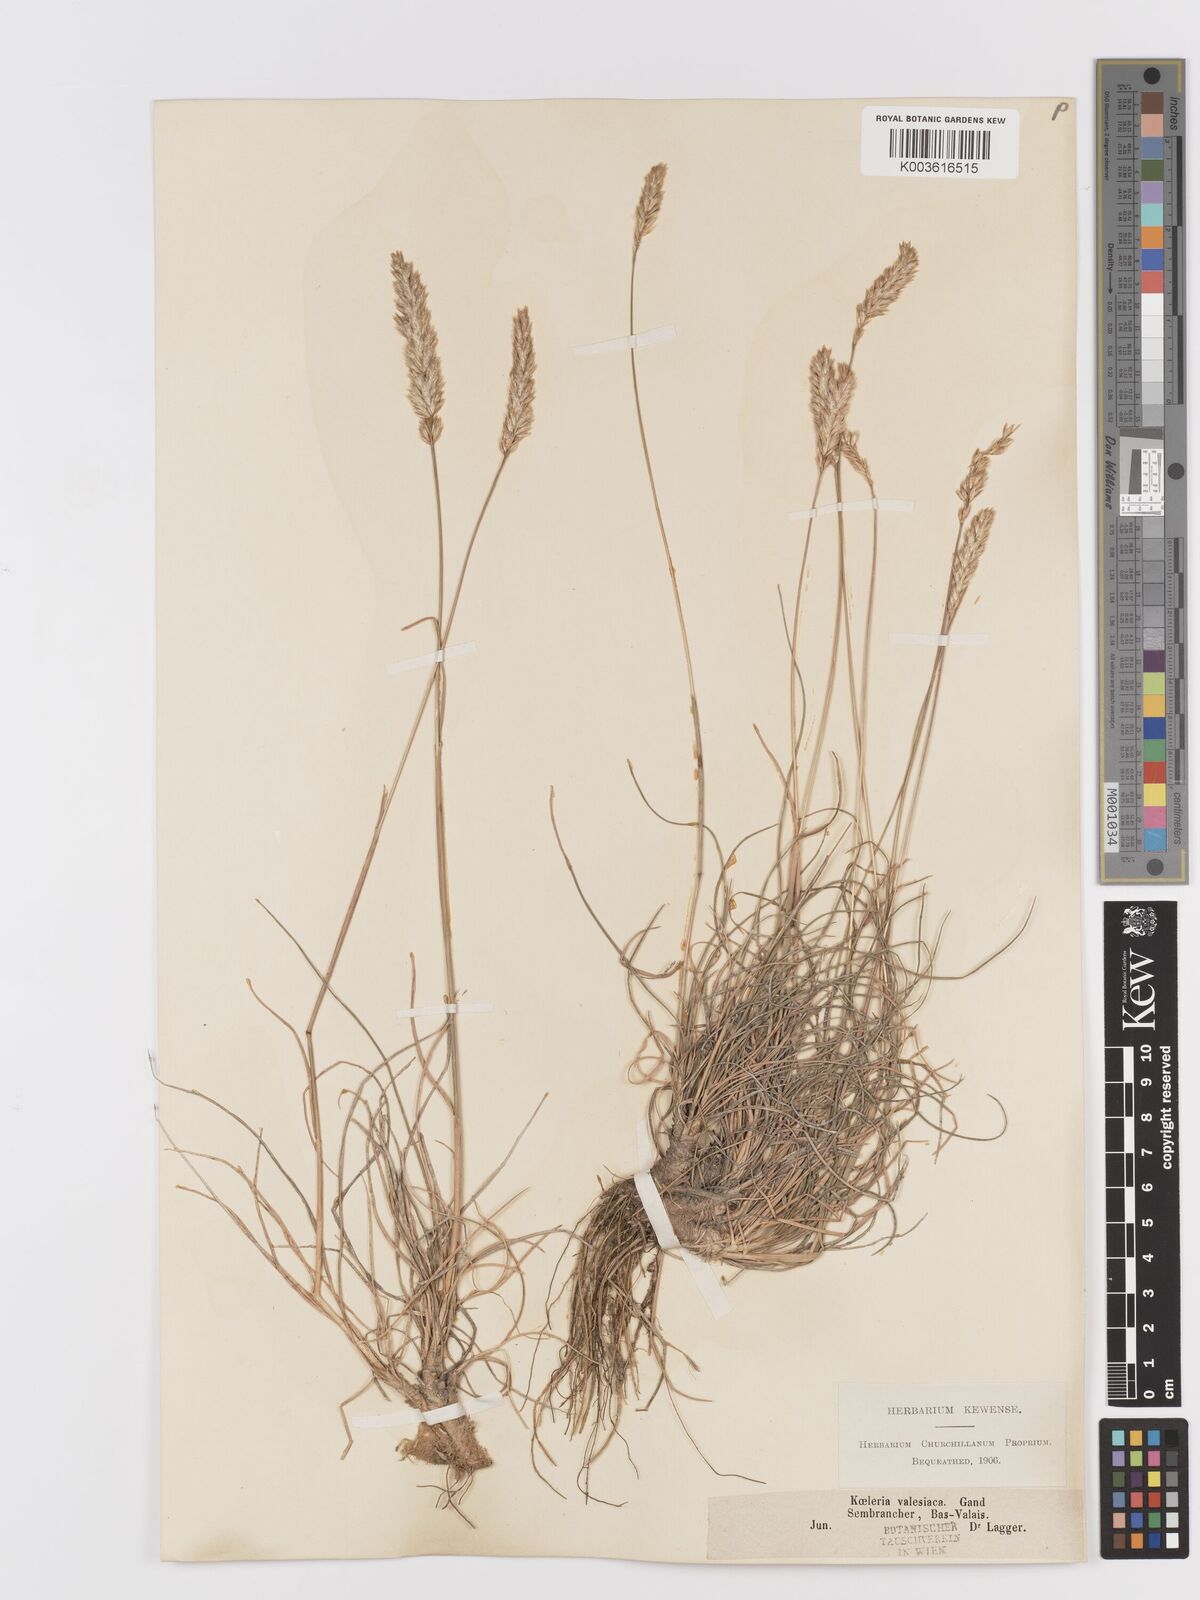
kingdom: Plantae
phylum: Tracheophyta
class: Liliopsida
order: Poales
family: Poaceae
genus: Koeleria
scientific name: Koeleria vallesiana
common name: Somerset hair-grass
